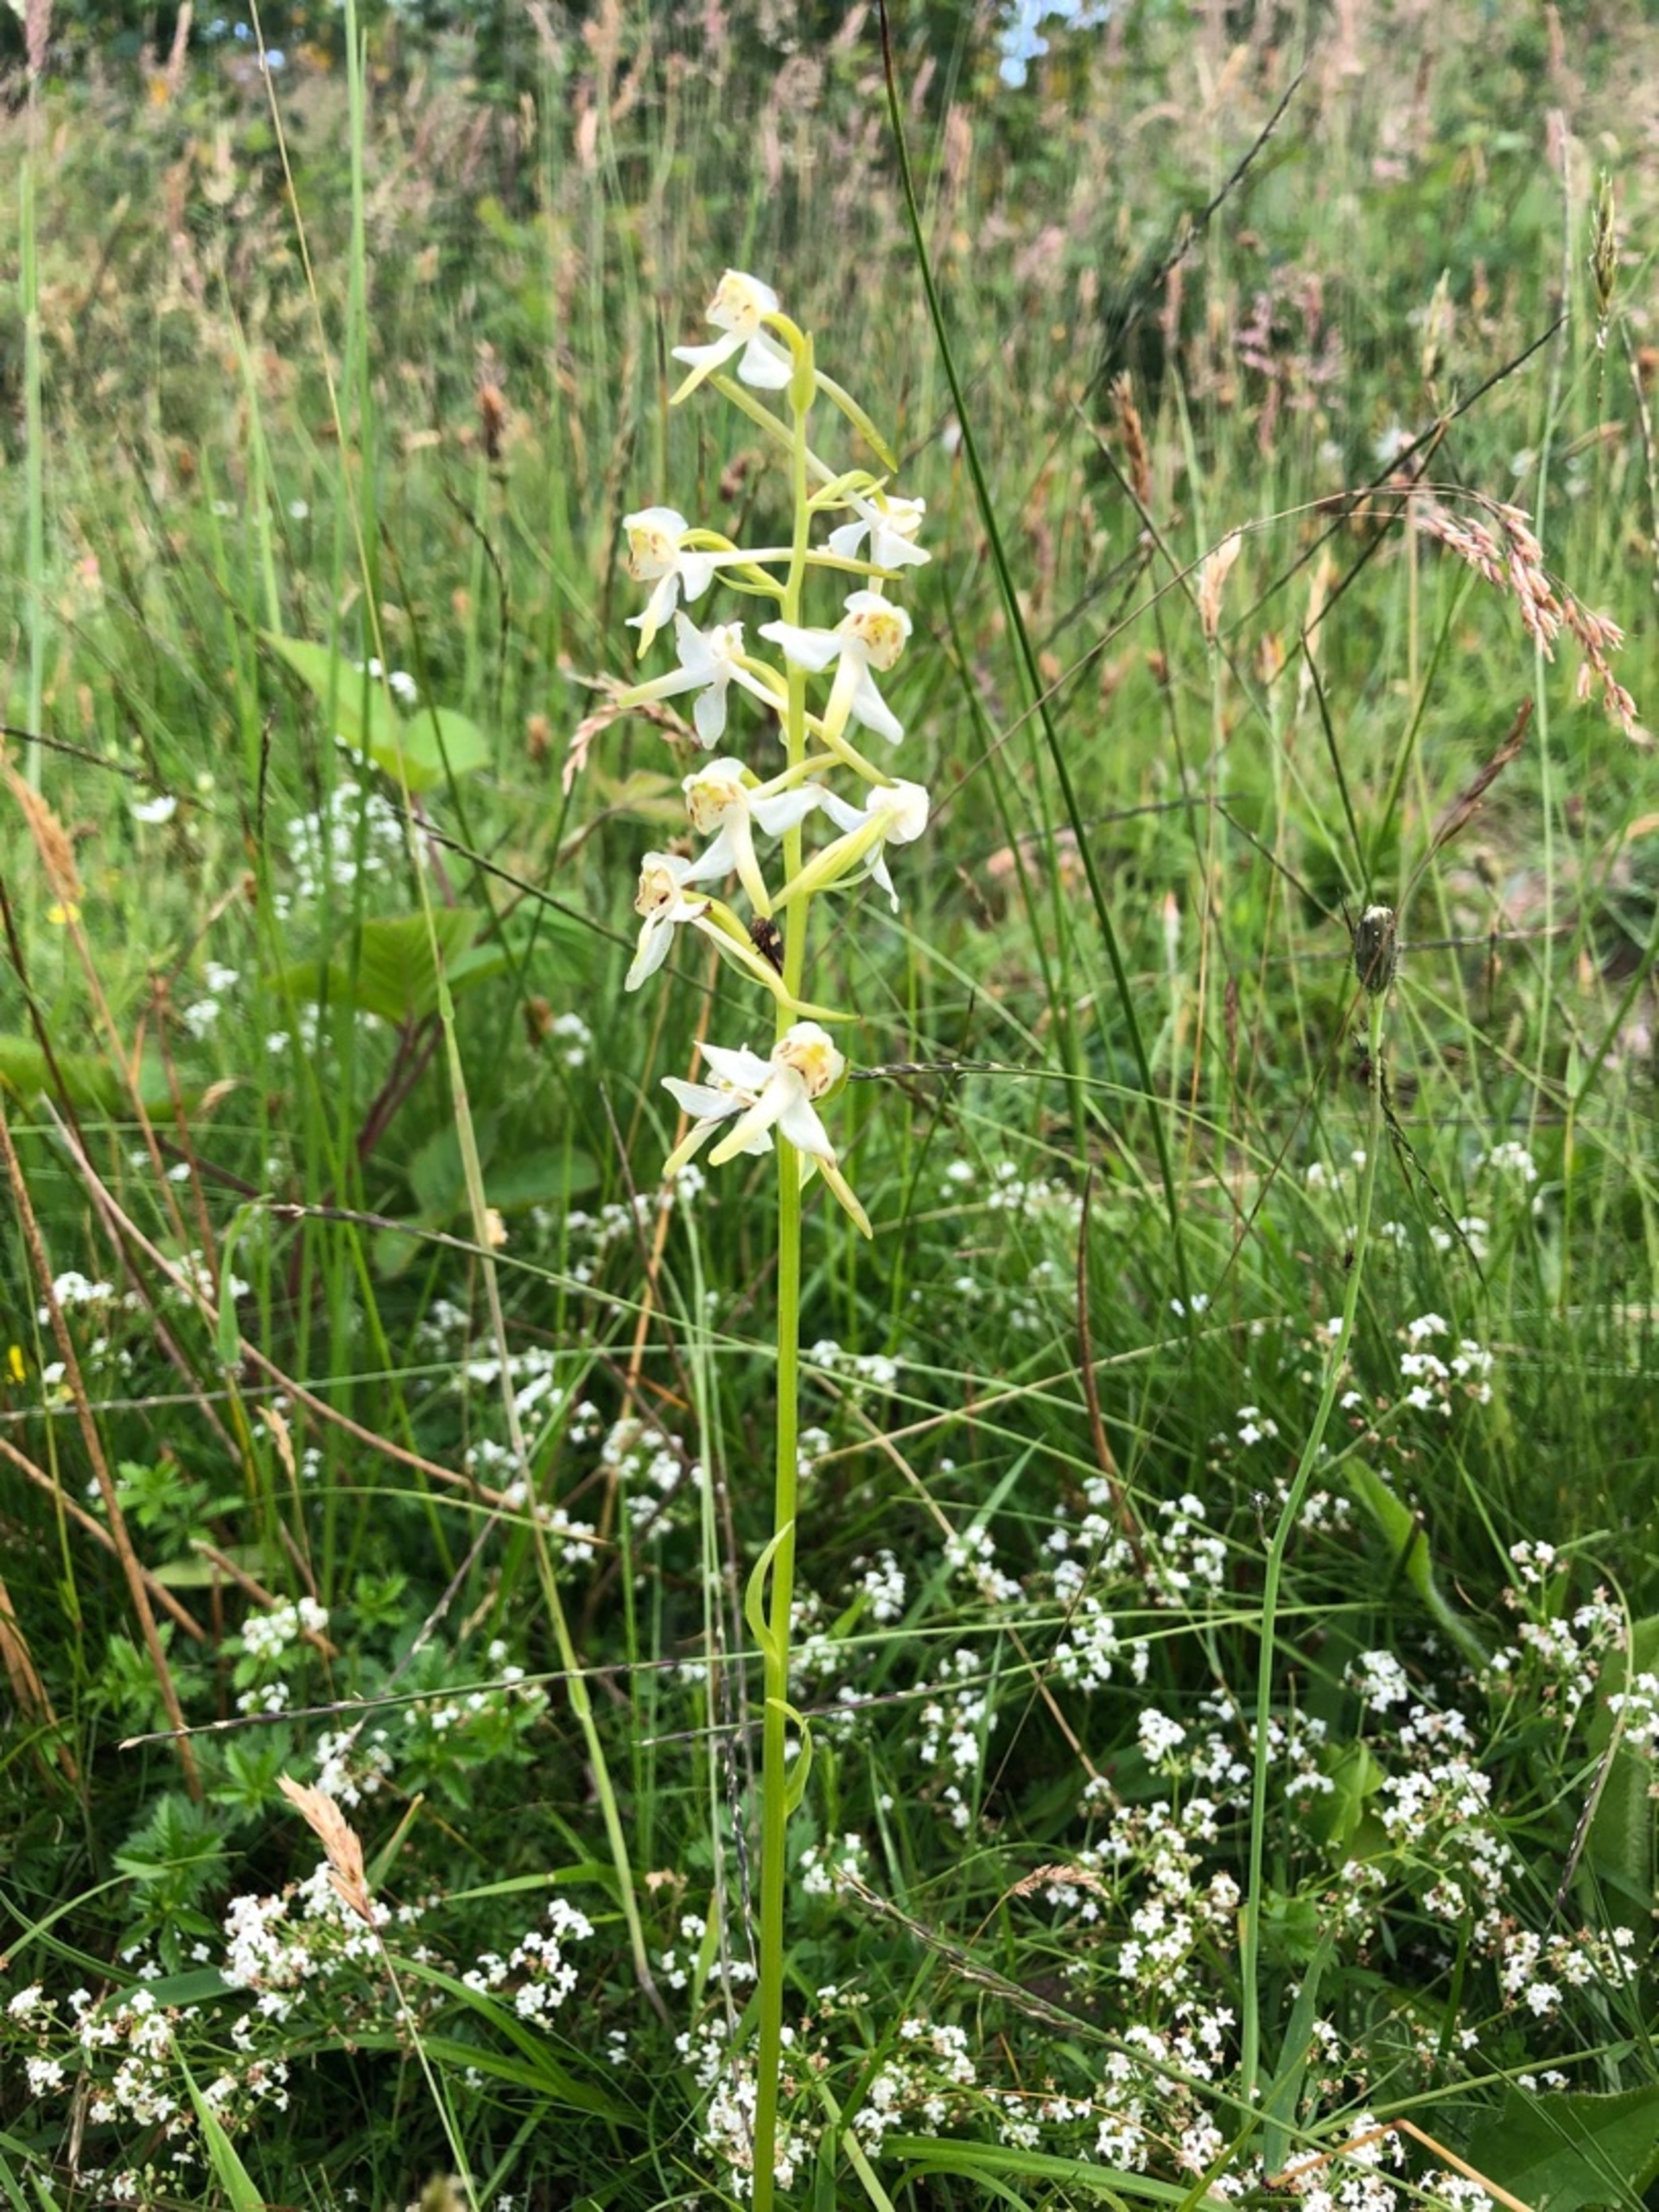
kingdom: Plantae
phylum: Tracheophyta
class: Liliopsida
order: Asparagales
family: Orchidaceae
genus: Platanthera
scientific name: Platanthera chlorantha
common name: Skov-gøgelilje
